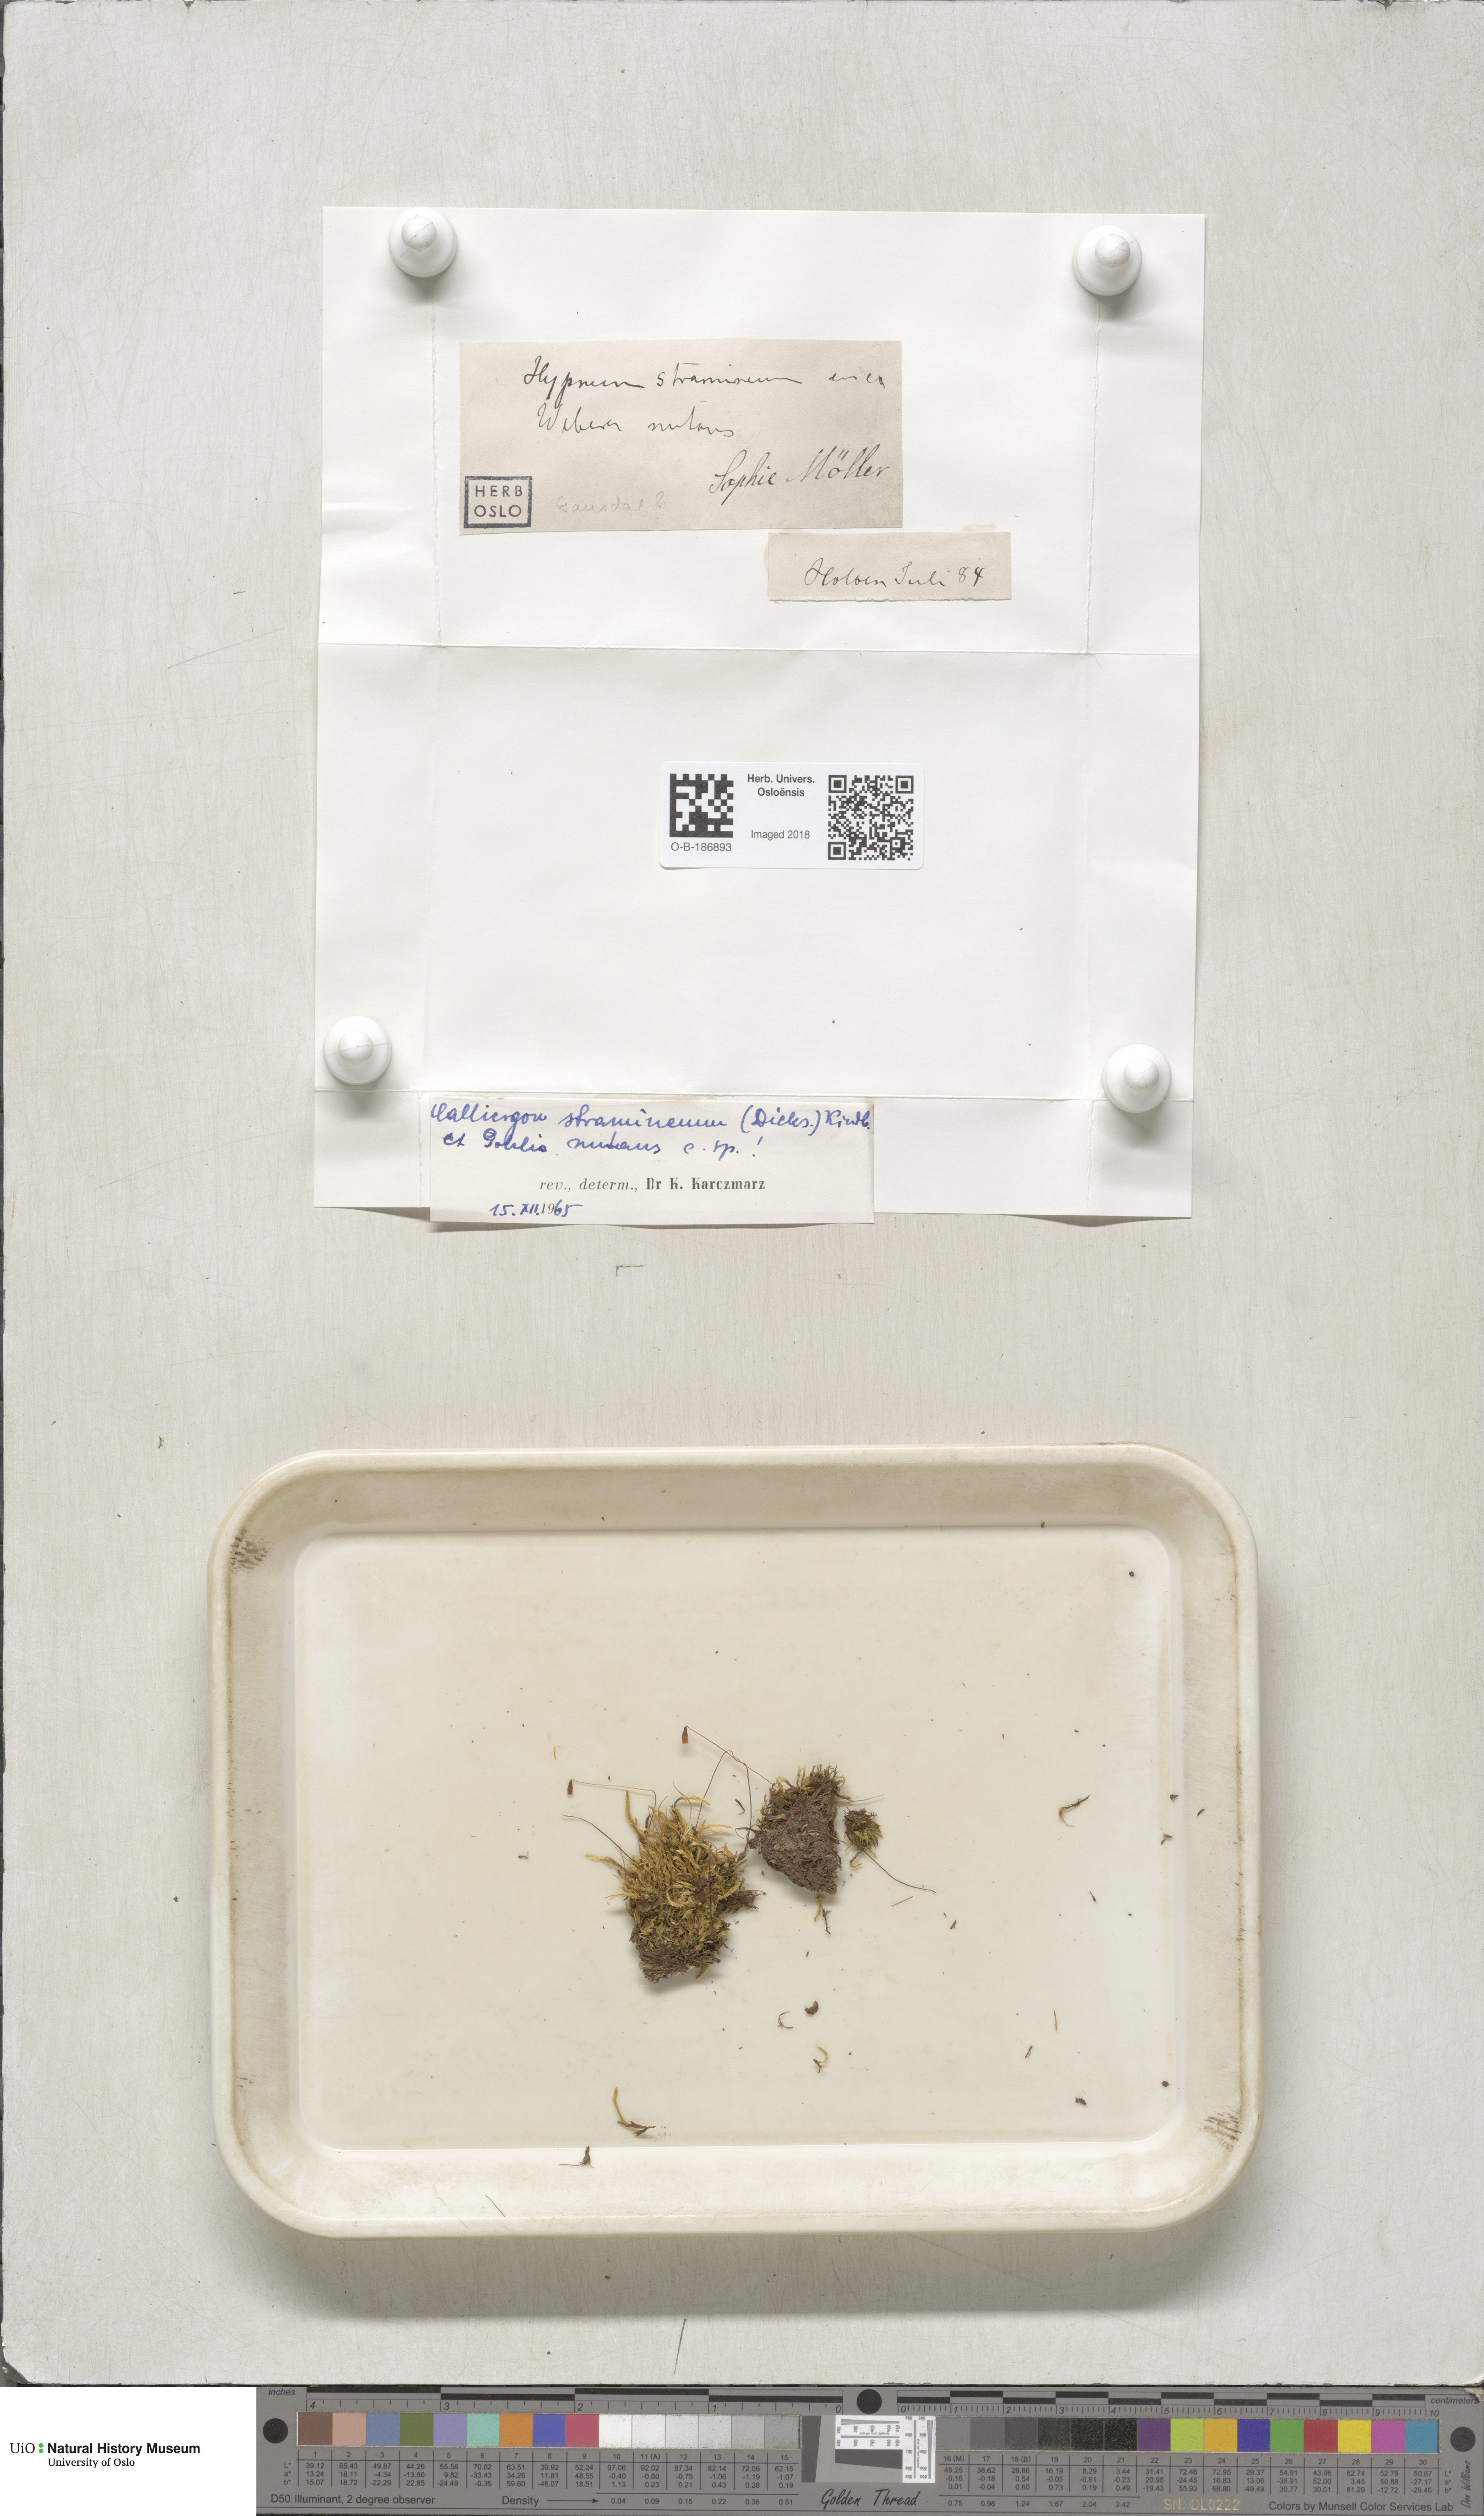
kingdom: Plantae
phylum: Bryophyta
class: Bryopsida
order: Hypnales
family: Calliergonaceae
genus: Straminergon
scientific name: Straminergon stramineum
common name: Straw moss
